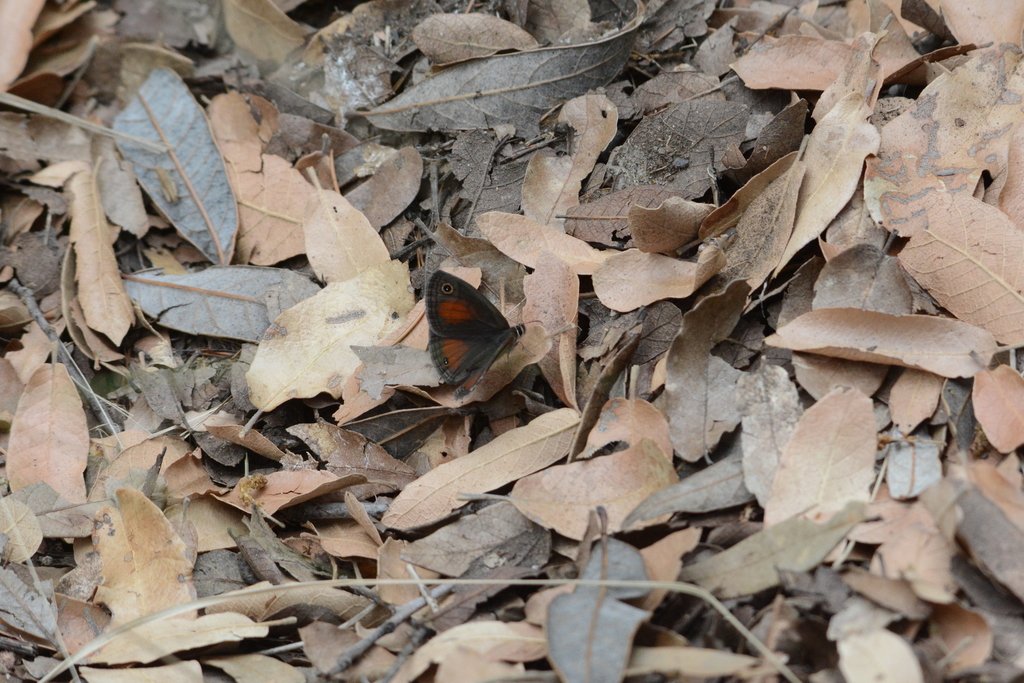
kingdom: Animalia
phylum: Arthropoda
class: Insecta
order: Lepidoptera
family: Nymphalidae
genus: Euptychia
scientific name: Euptychia rubricata
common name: Red Satyr
